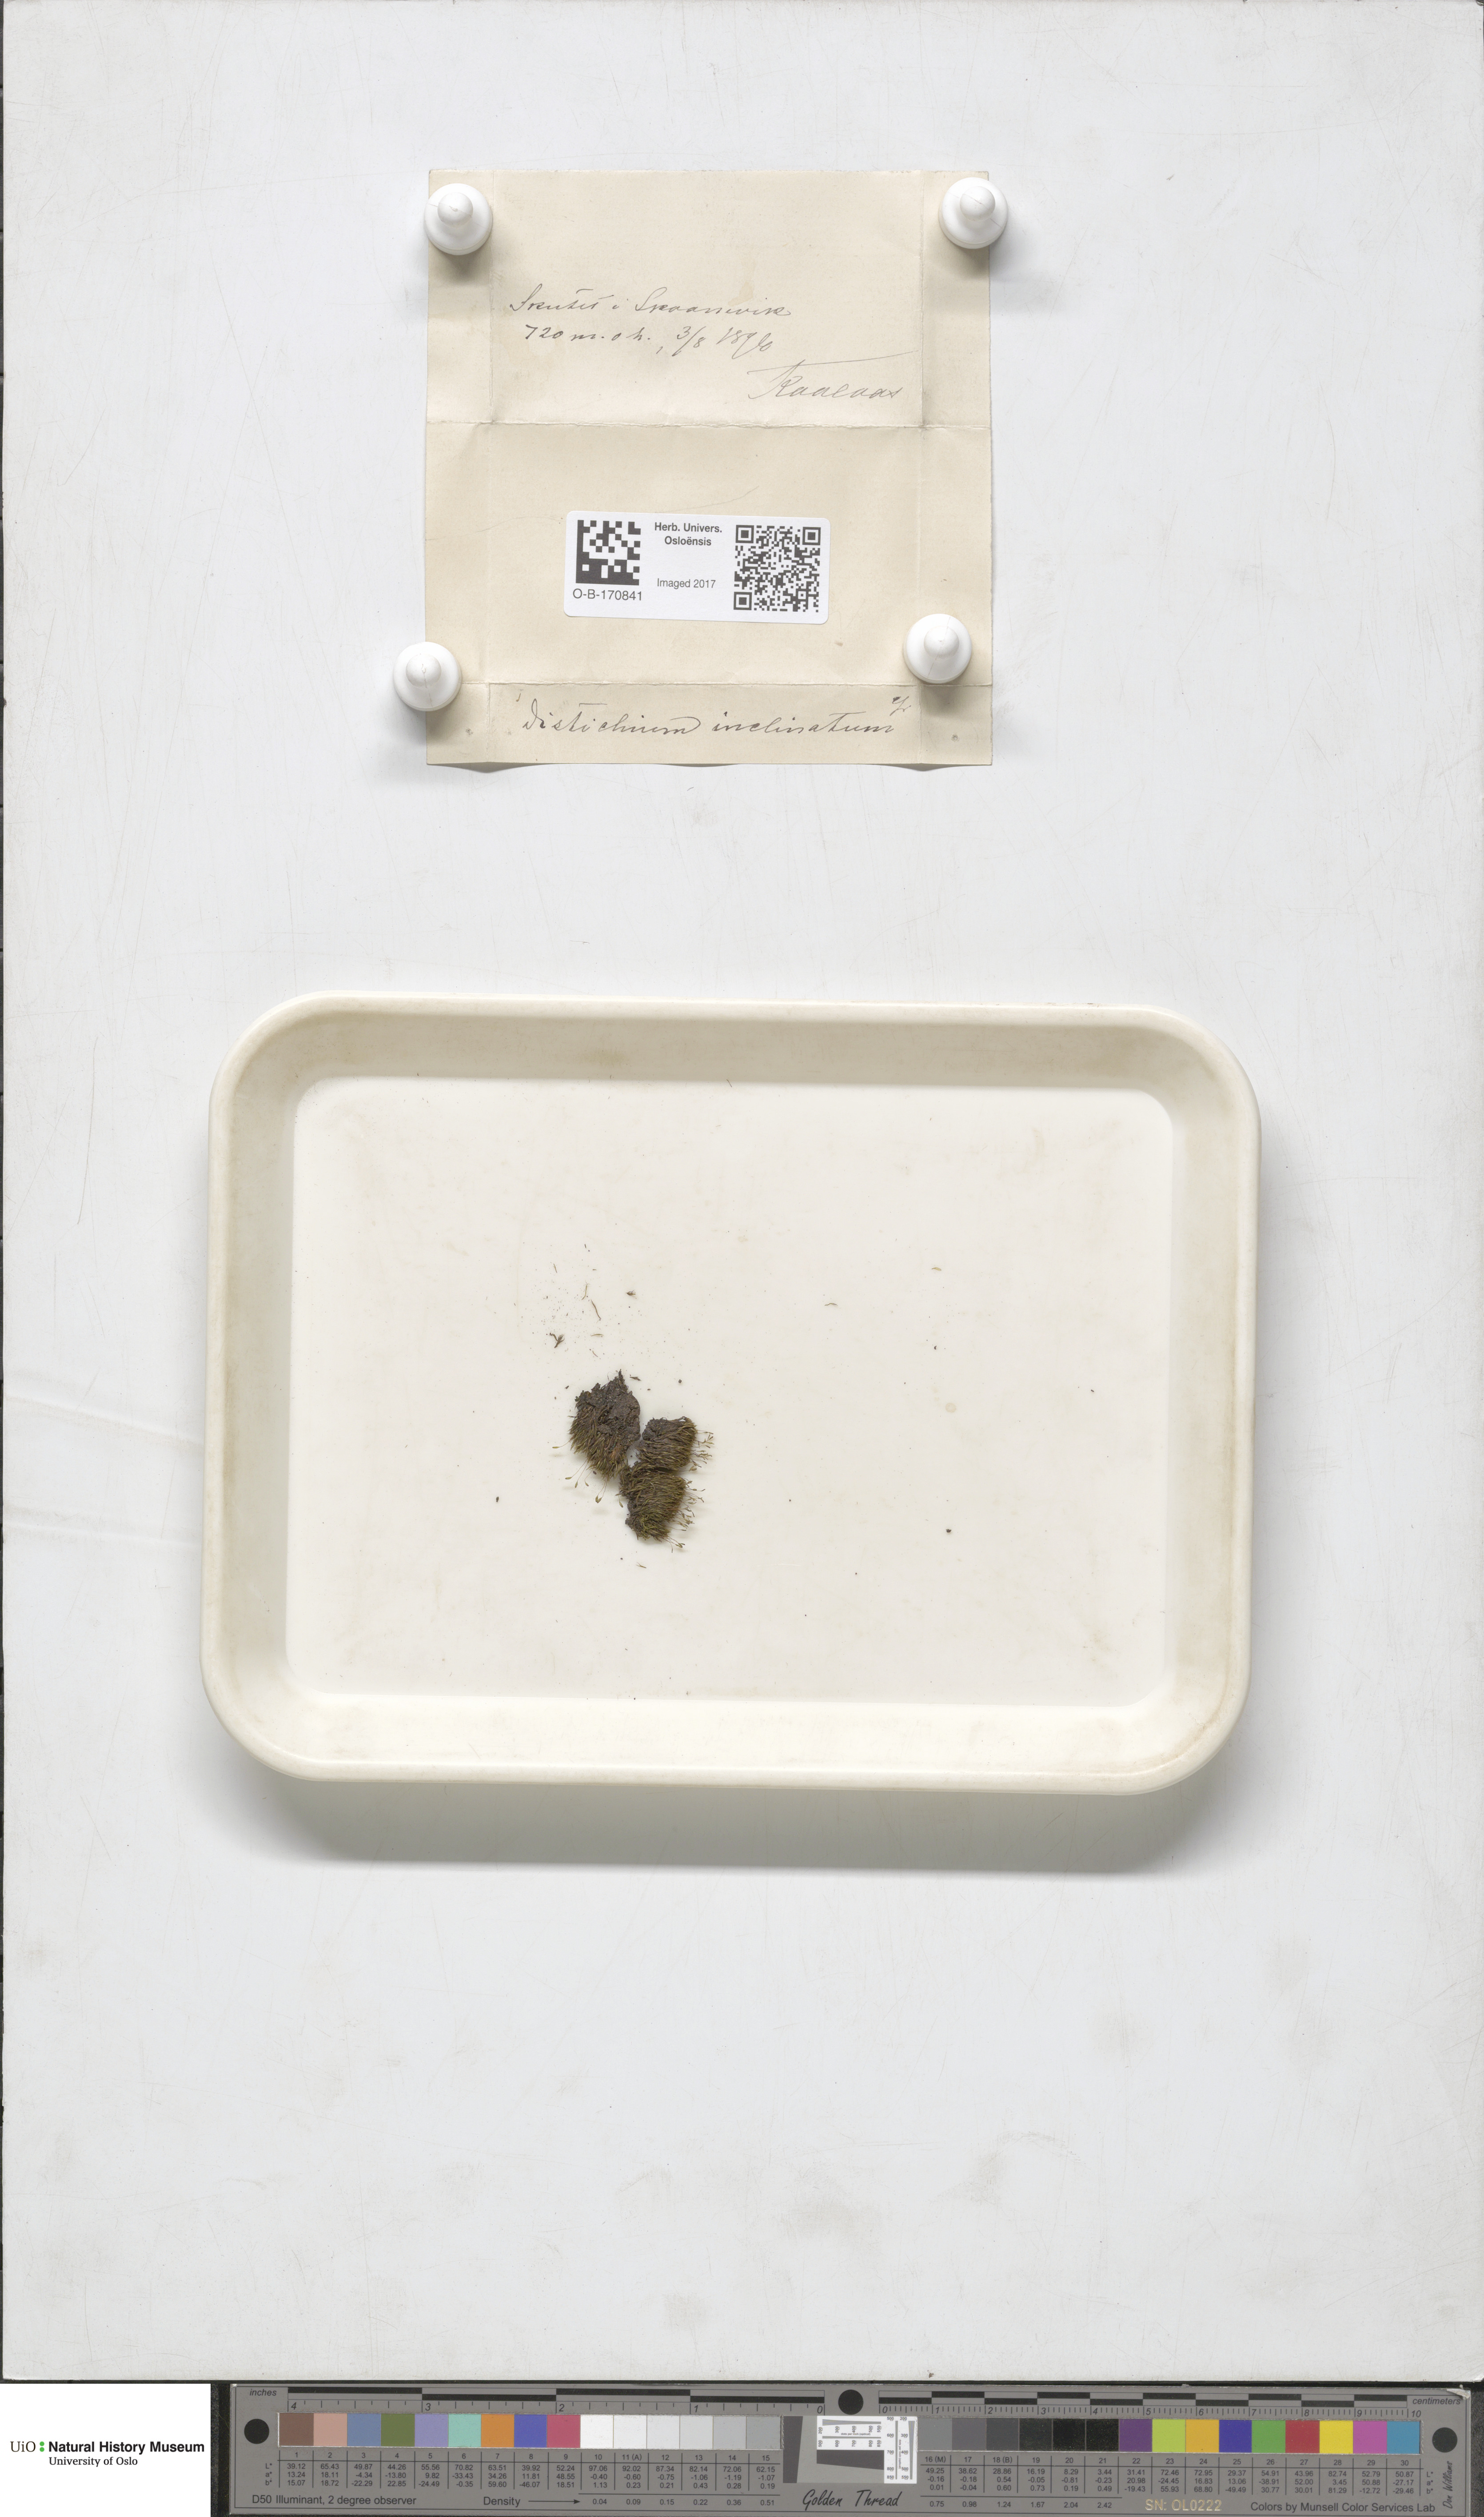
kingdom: Plantae
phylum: Bryophyta
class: Bryopsida
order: Scouleriales
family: Distichiaceae
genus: Distichium
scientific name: Distichium inclinatum
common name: Inclined iris moss
